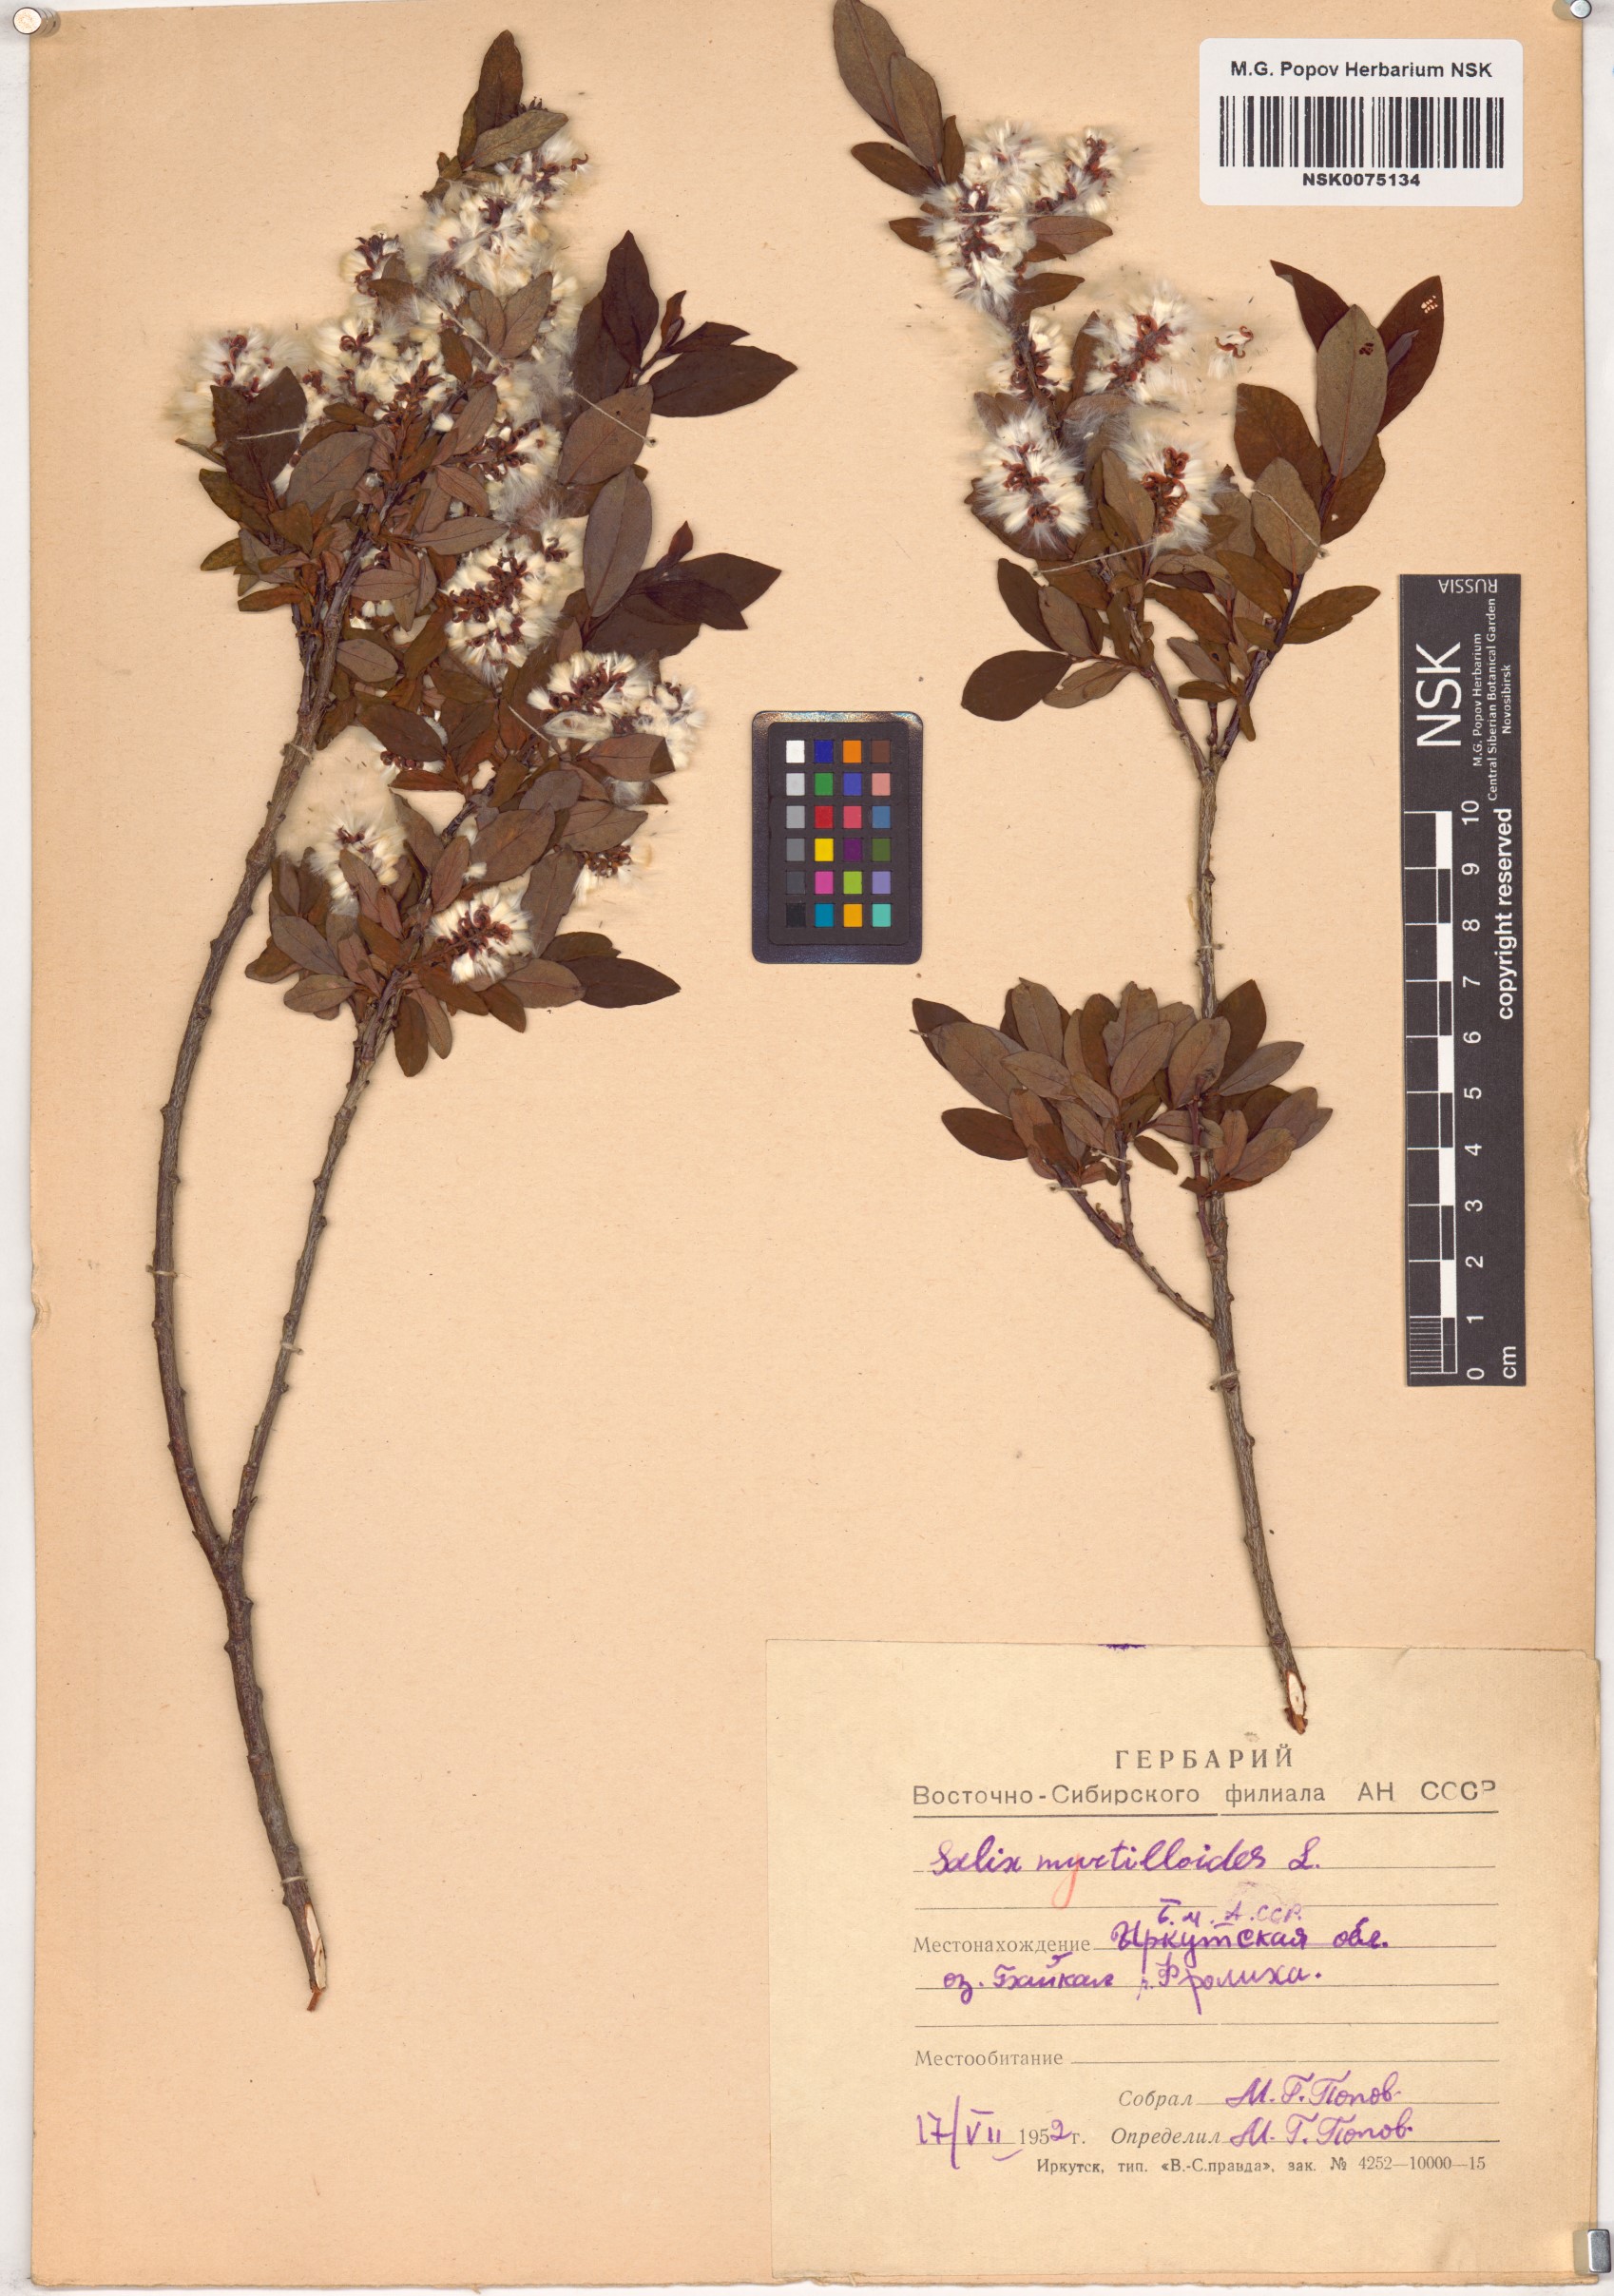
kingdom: Plantae
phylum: Tracheophyta
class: Magnoliopsida
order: Malpighiales
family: Salicaceae
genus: Salix
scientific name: Salix myrtilloides
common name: Myrtle-leaved willow
